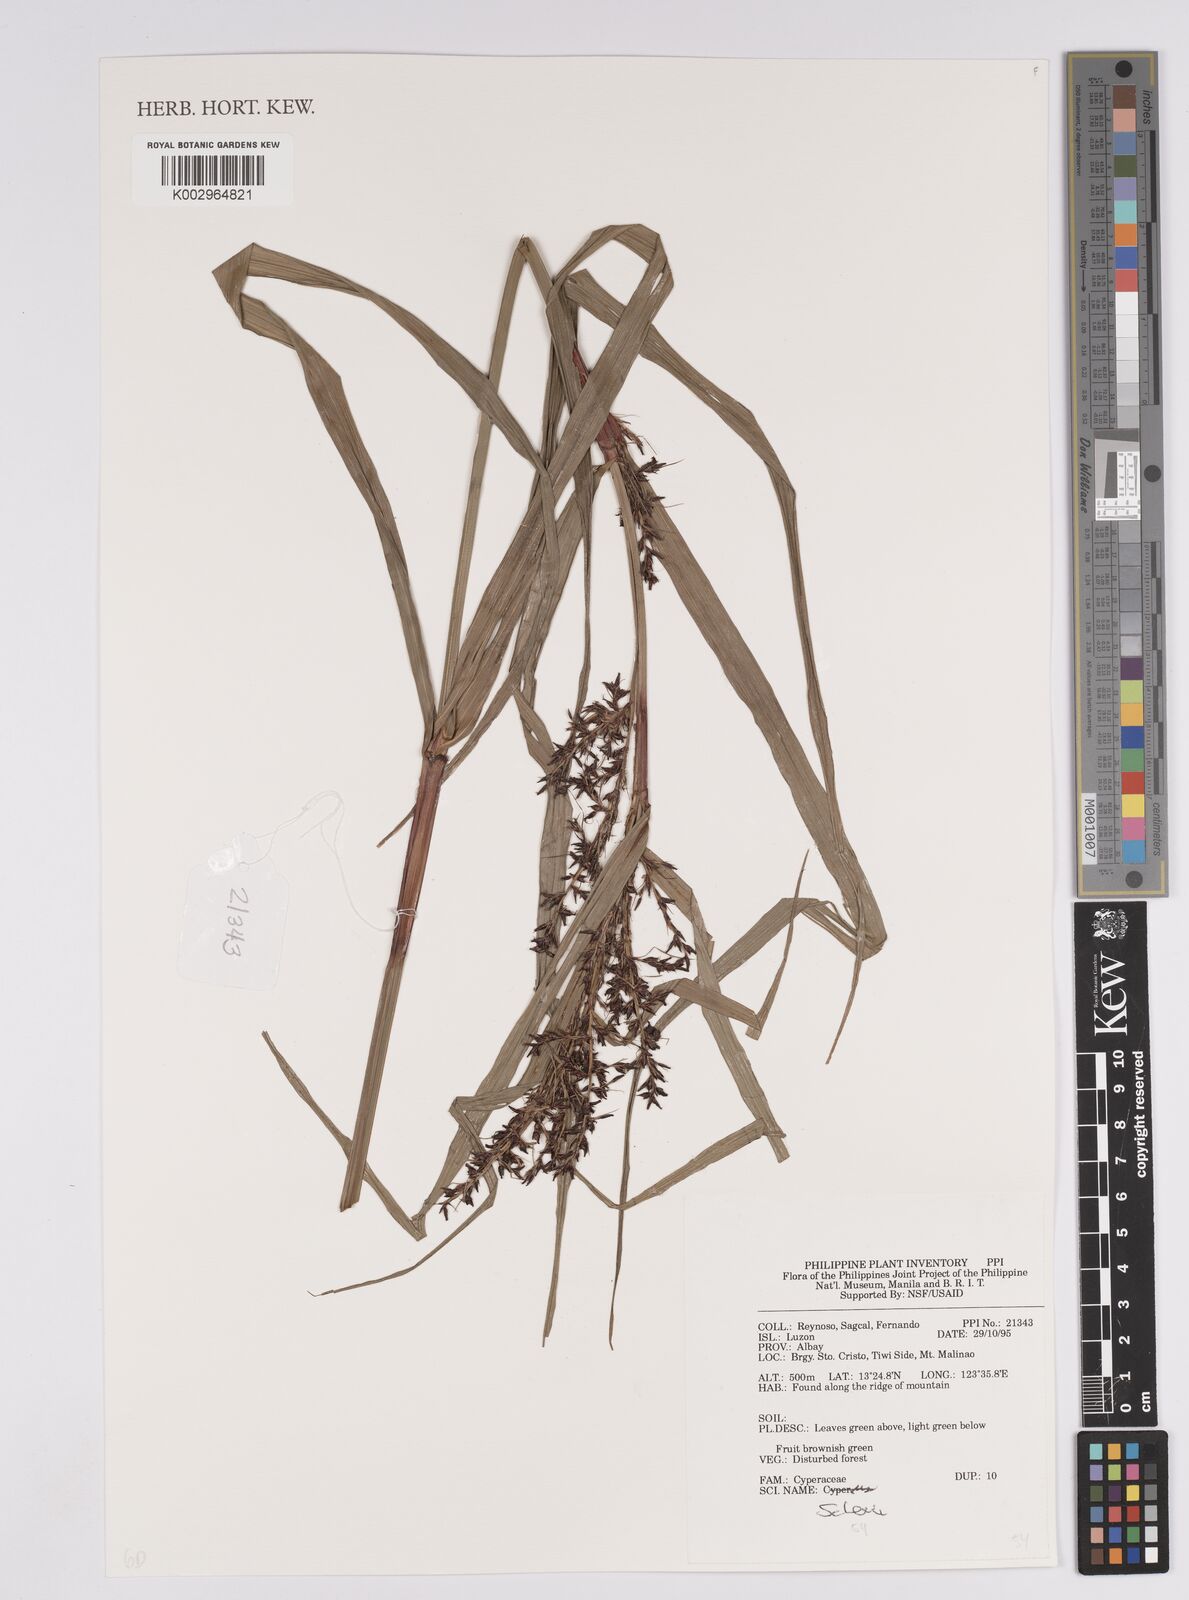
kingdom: Plantae
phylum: Tracheophyta
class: Liliopsida
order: Poales
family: Cyperaceae
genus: Scleria
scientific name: Scleria
